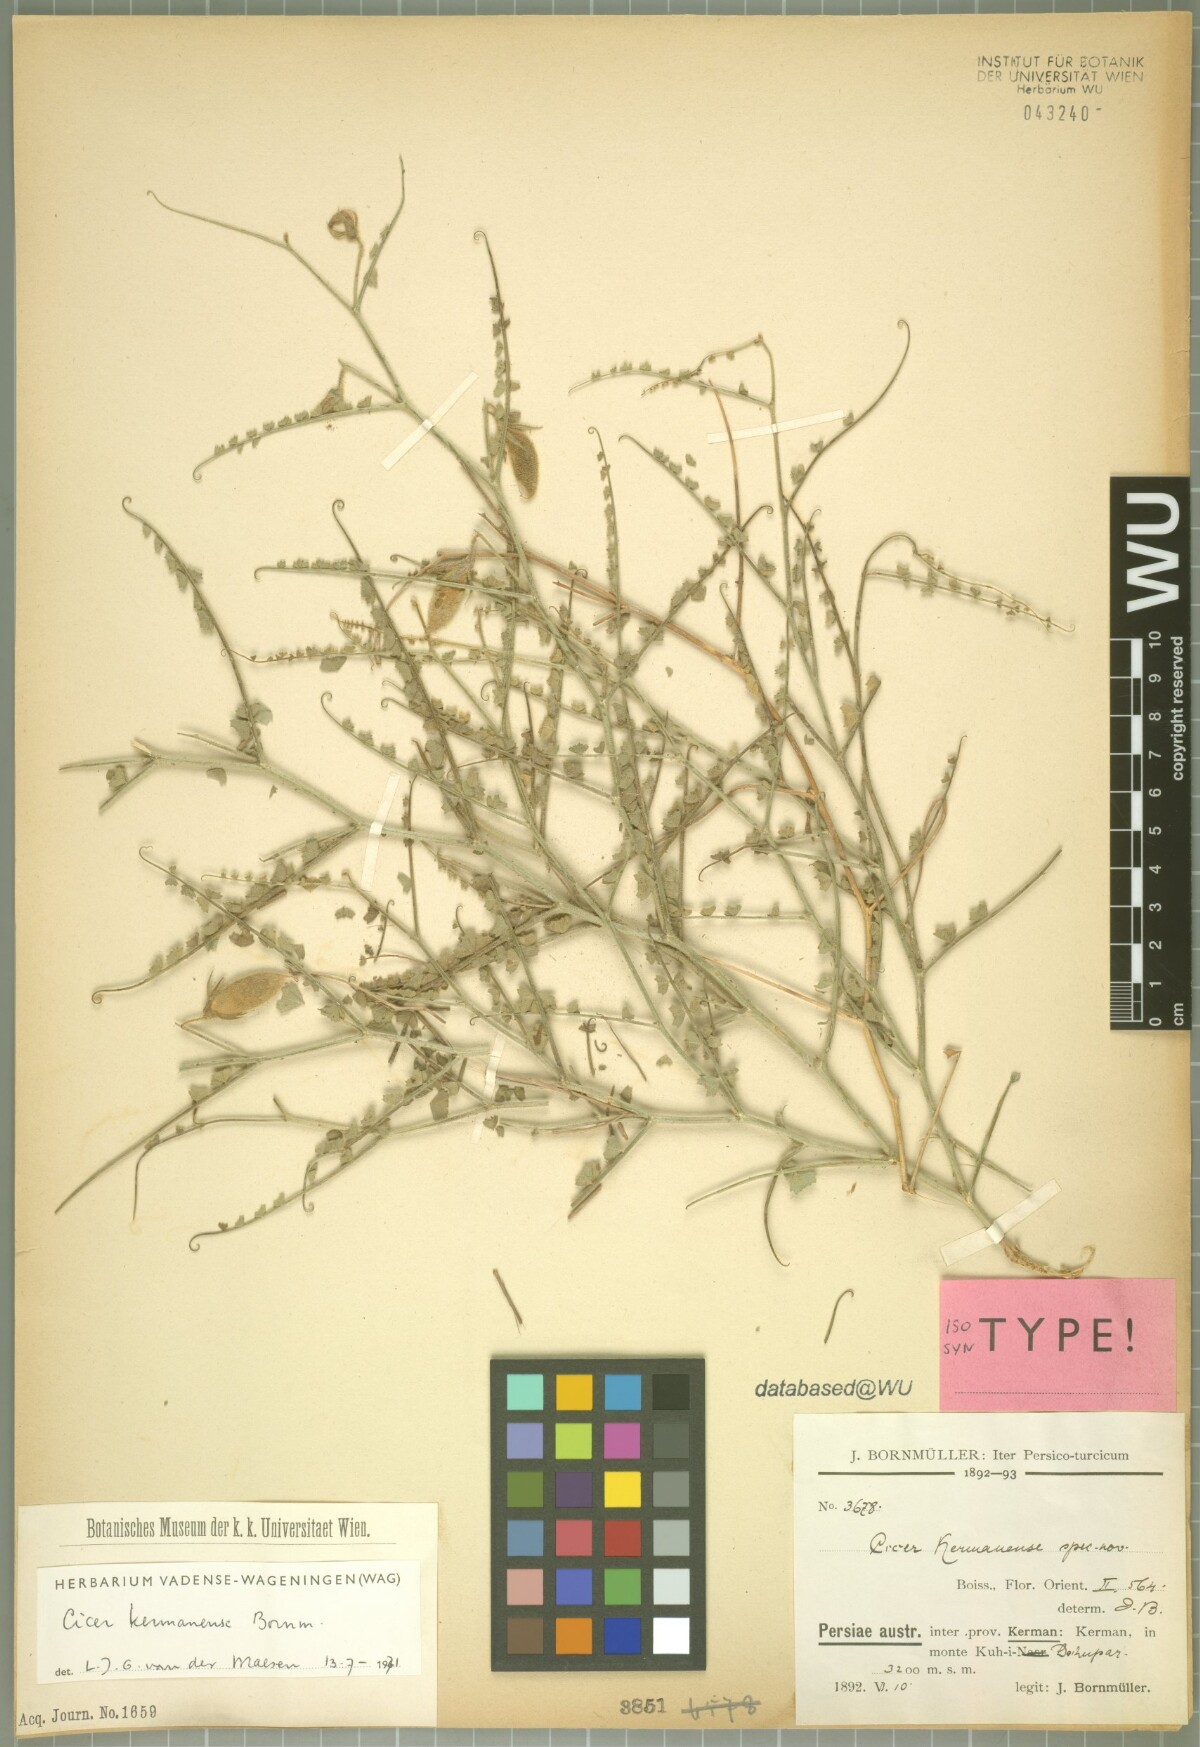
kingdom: Plantae
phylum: Tracheophyta
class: Magnoliopsida
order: Fabales
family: Fabaceae
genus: Cicer
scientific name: Cicer kermanense
